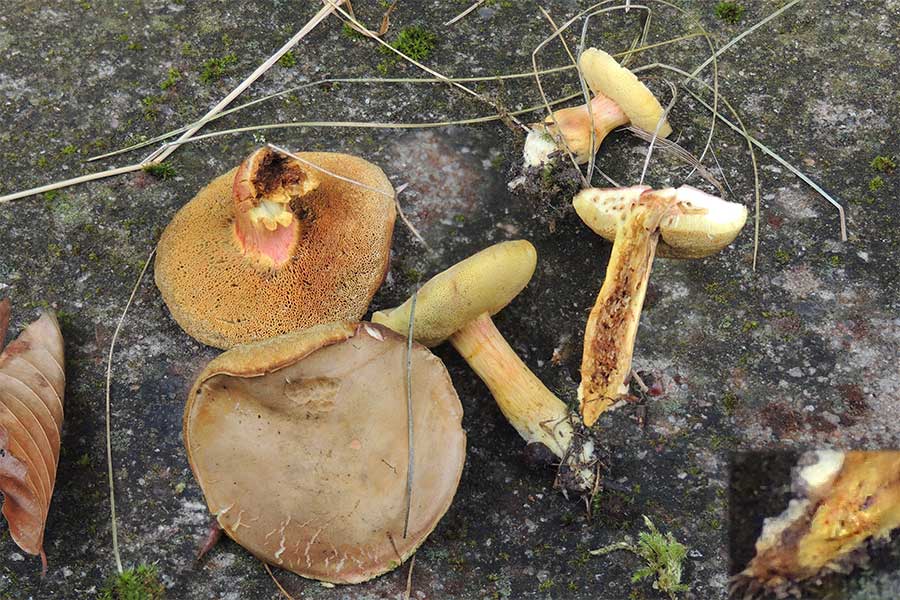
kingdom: Fungi
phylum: Basidiomycota
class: Agaricomycetes
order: Boletales
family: Boletaceae
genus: Hortiboletus
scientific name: Hortiboletus engelii
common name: fersken-rørhat
